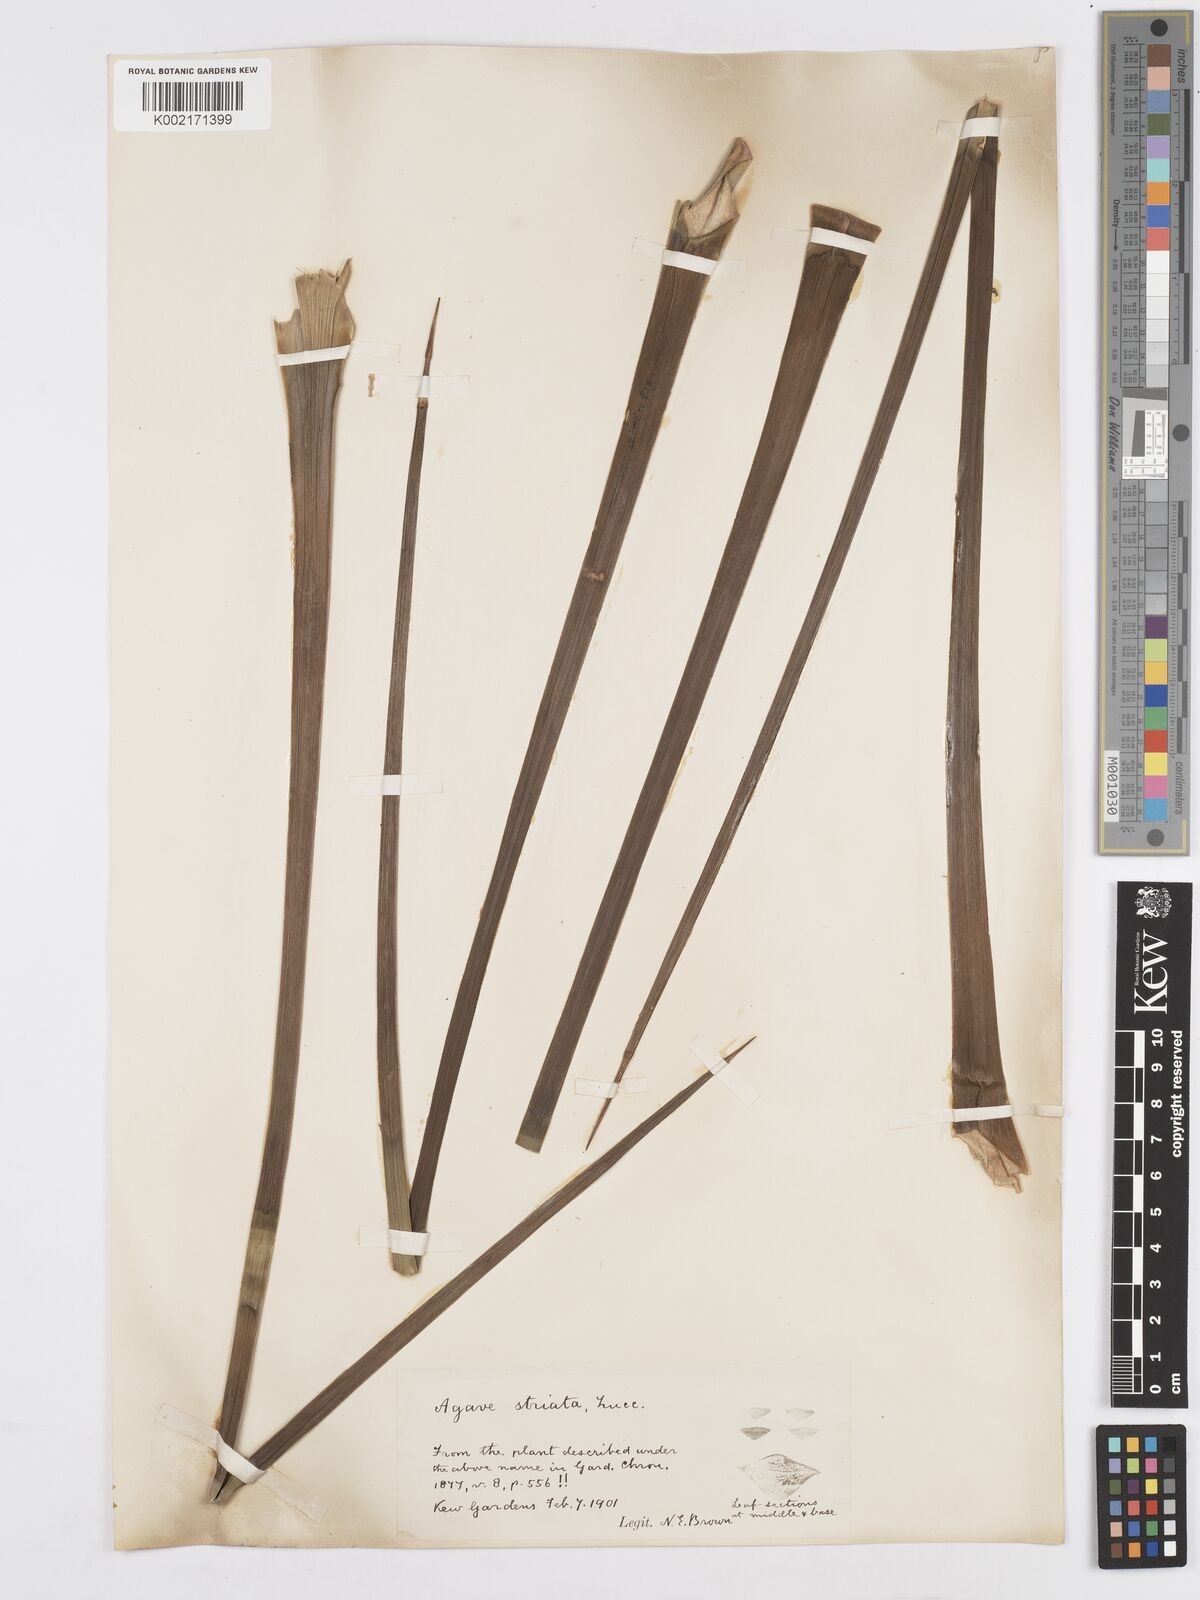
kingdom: Plantae
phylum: Tracheophyta
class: Liliopsida
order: Asparagales
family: Asparagaceae
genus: Agave
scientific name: Agave striata
